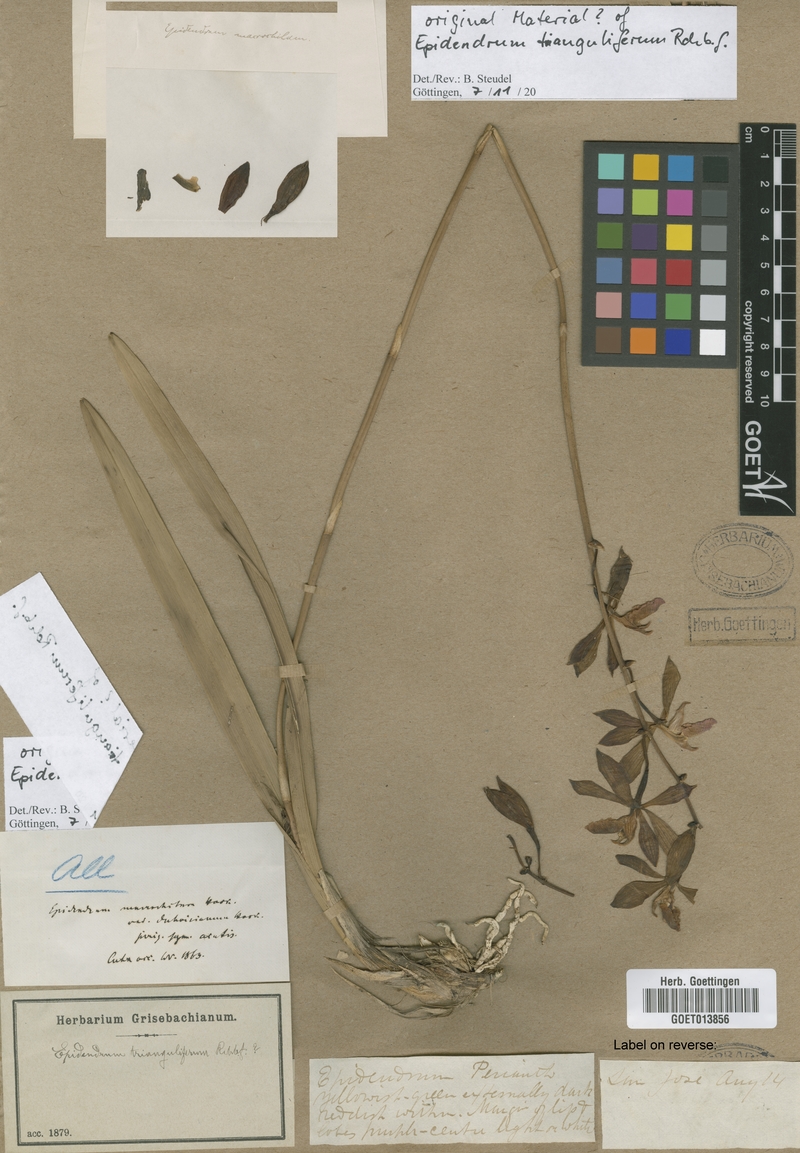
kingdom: Plantae
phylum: Tracheophyta
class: Liliopsida
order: Asparagales
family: Orchidaceae
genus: Encyclia
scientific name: Encyclia triangulifera
